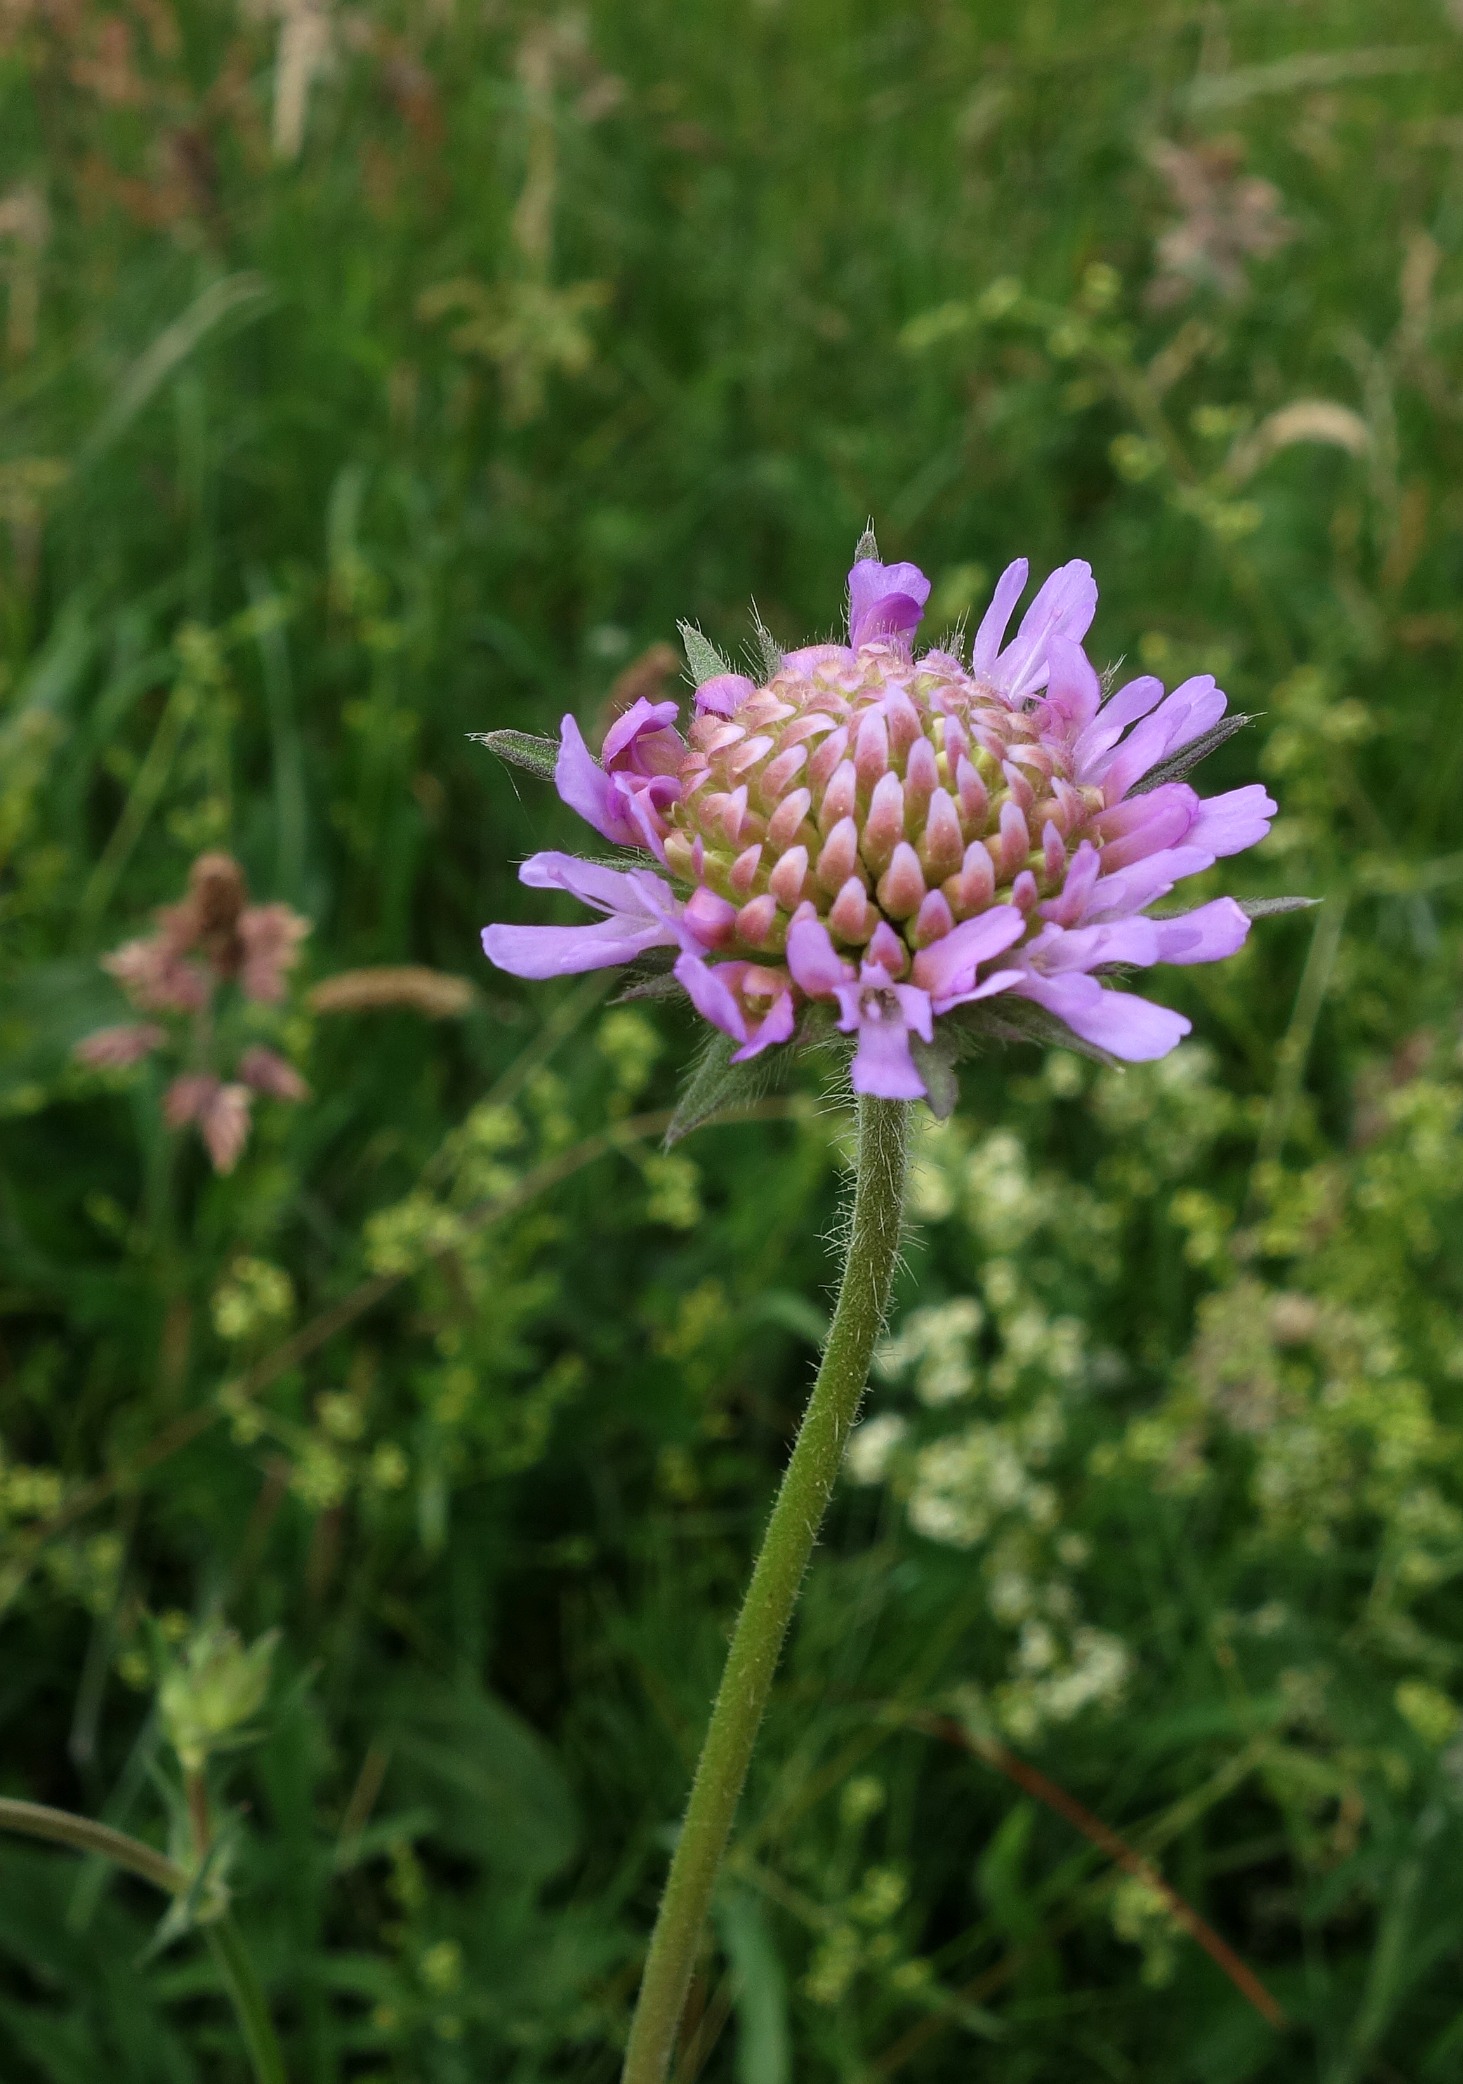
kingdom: Plantae
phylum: Tracheophyta
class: Magnoliopsida
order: Dipsacales
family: Caprifoliaceae
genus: Knautia
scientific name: Knautia arvensis
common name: Blåhat
